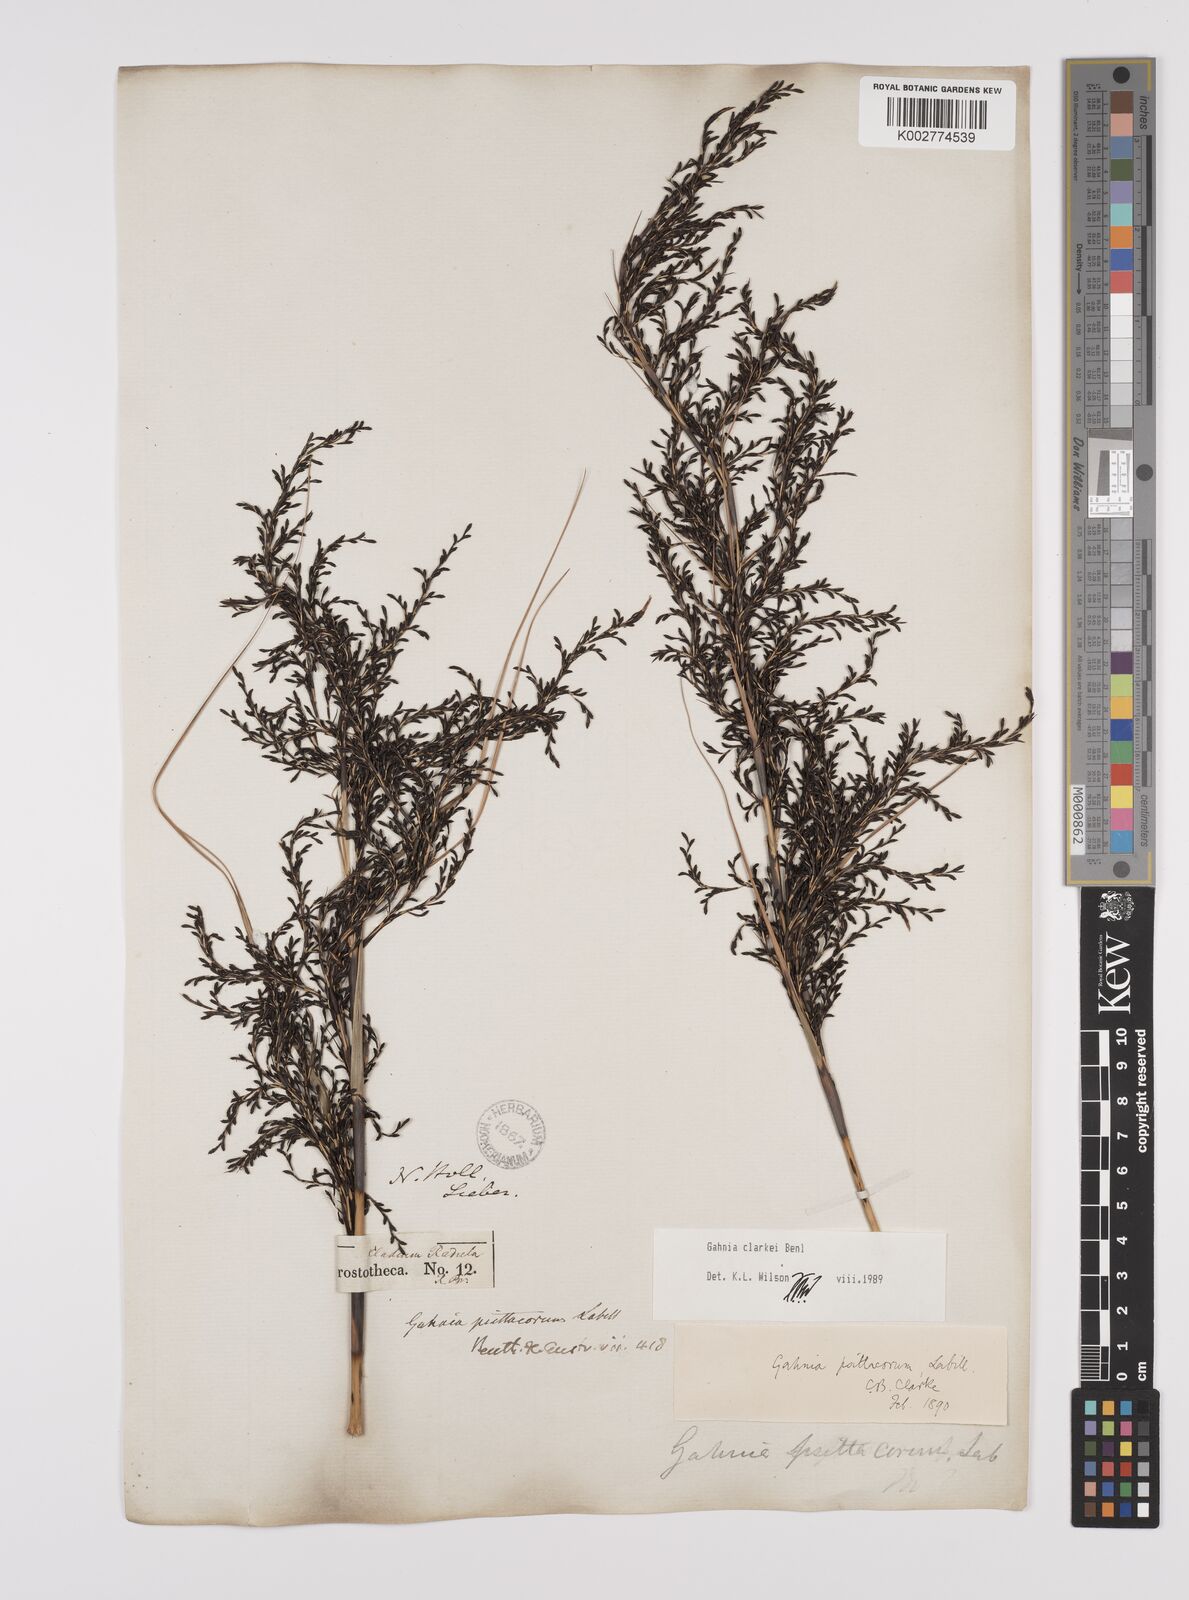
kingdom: Plantae
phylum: Tracheophyta
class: Liliopsida
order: Poales
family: Cyperaceae
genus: Gahnia
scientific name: Gahnia clarkei
